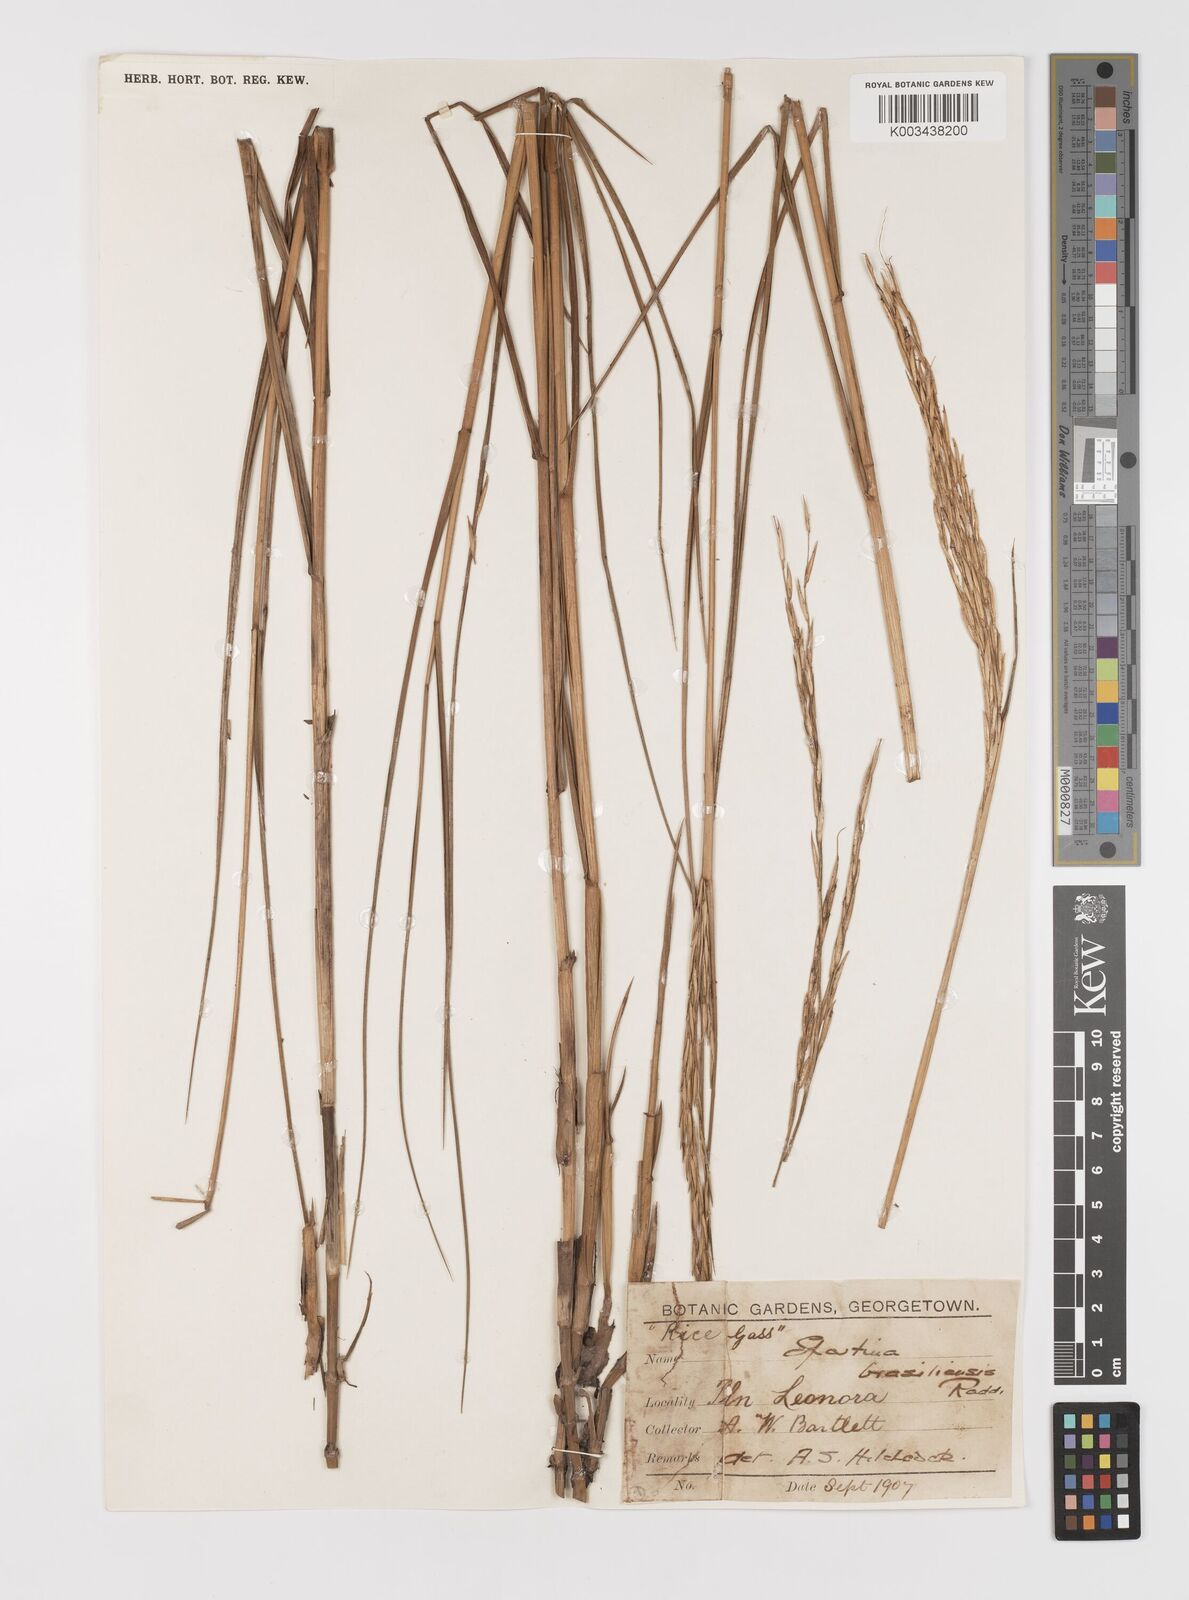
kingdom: Plantae
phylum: Tracheophyta
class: Liliopsida
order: Poales
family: Poaceae
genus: Sporobolus
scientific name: Sporobolus alterniflorus
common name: Atlantic cordgrass
